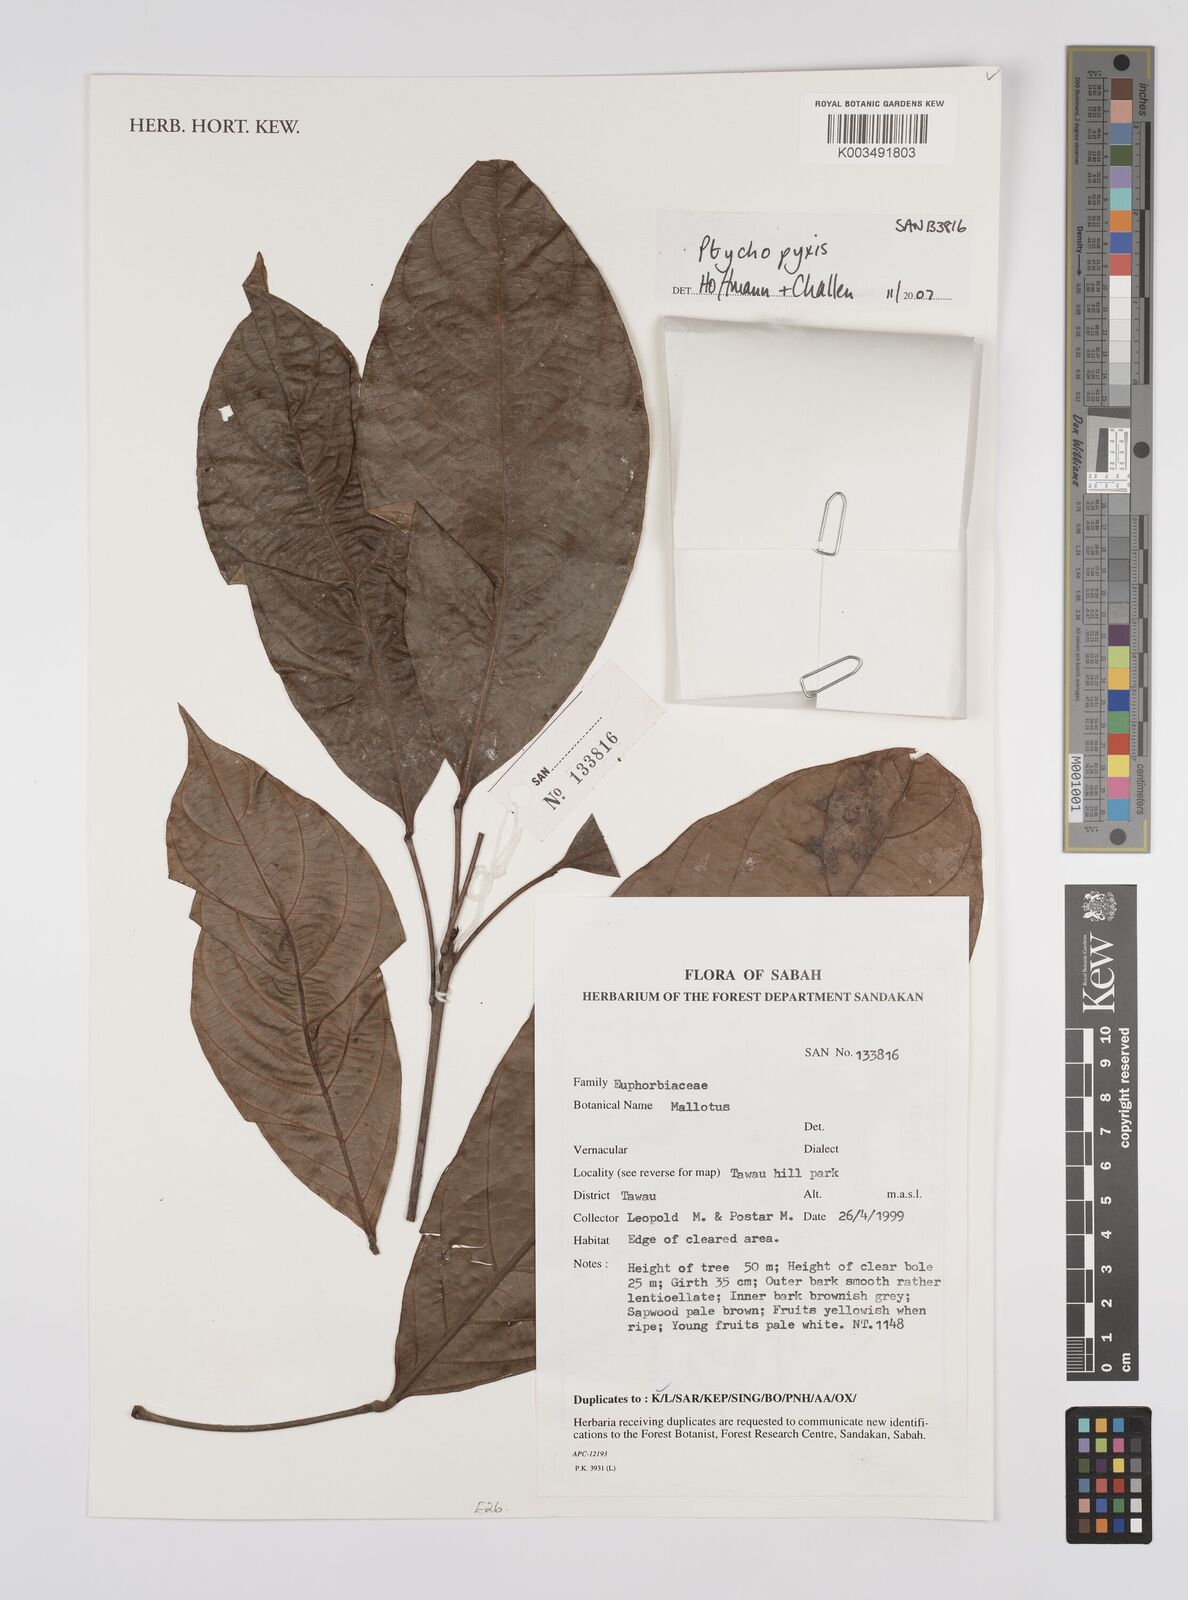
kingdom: Plantae
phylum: Tracheophyta
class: Magnoliopsida
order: Malpighiales
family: Euphorbiaceae
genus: Ptychopyxis
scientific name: Ptychopyxis
